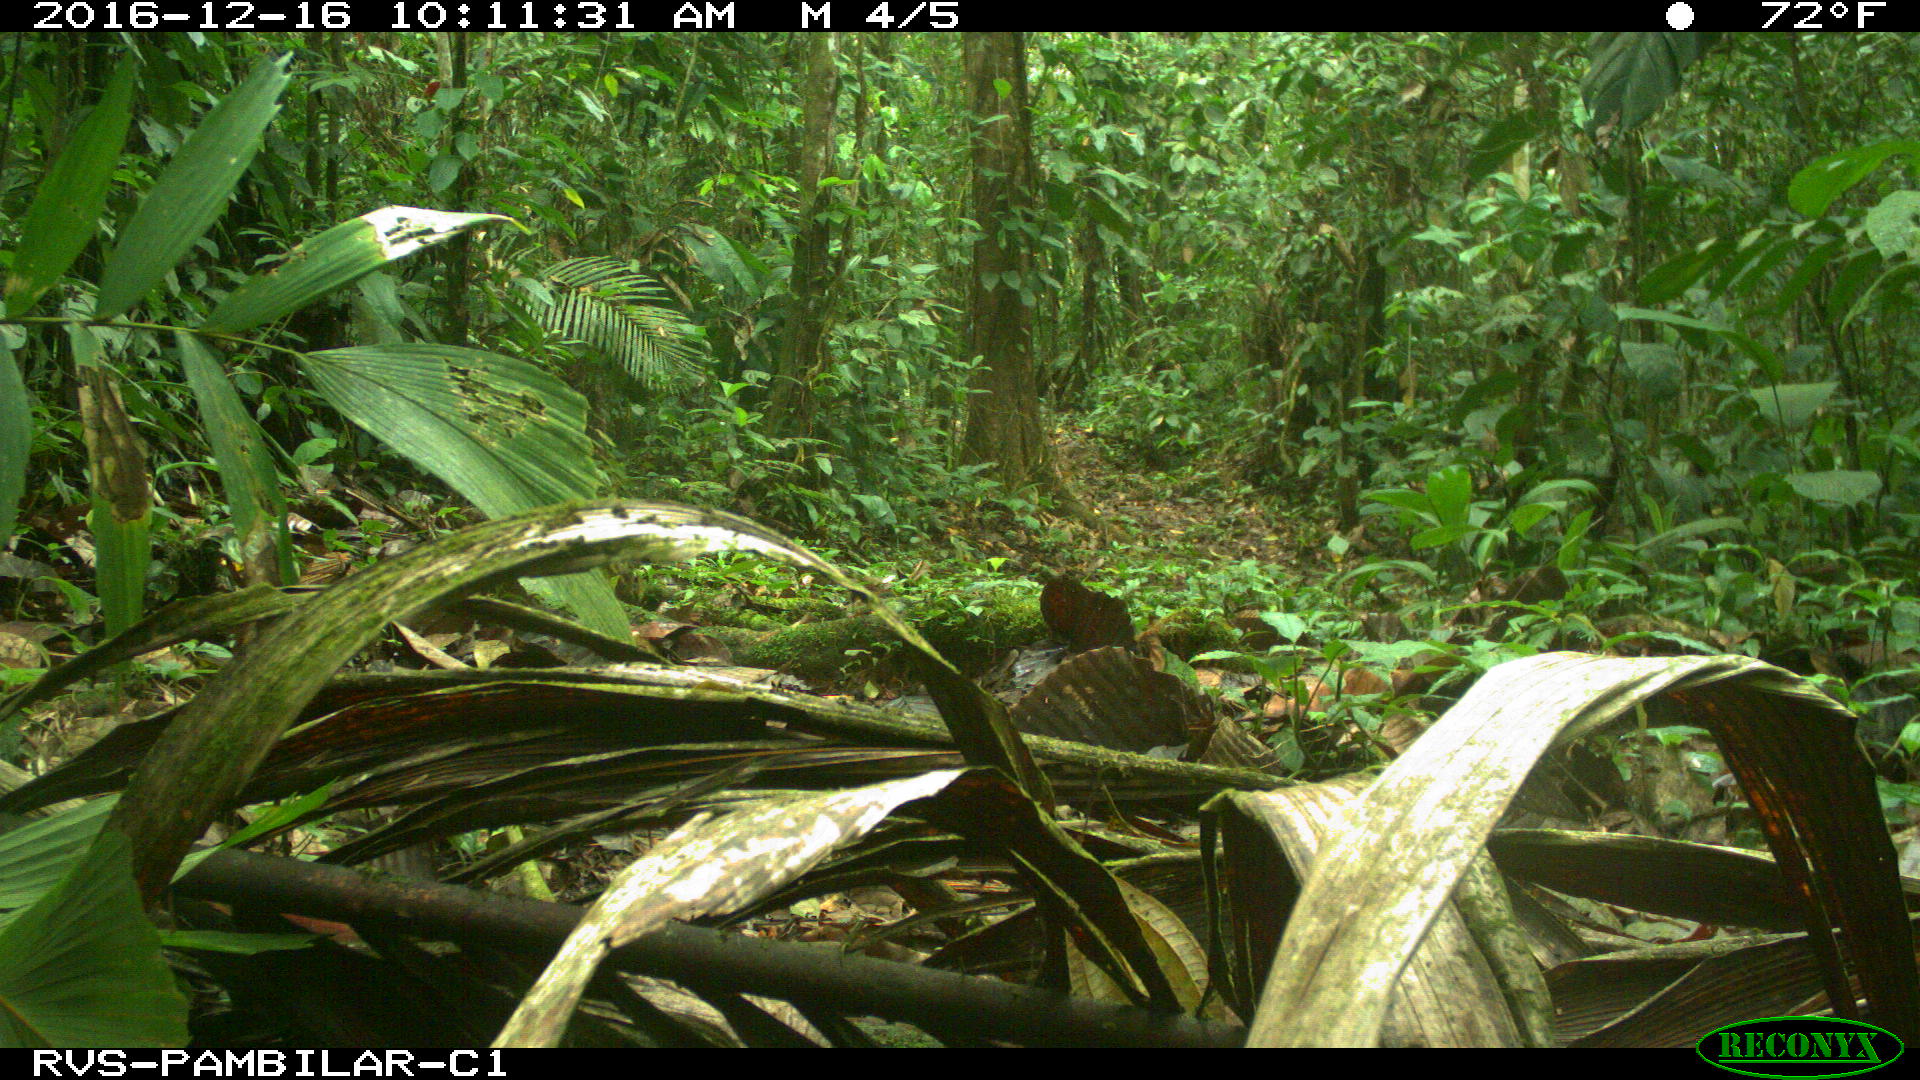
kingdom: Animalia
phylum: Chordata
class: Mammalia
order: Carnivora
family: Canidae
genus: Canis
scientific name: Canis lupus
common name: Gray wolf
